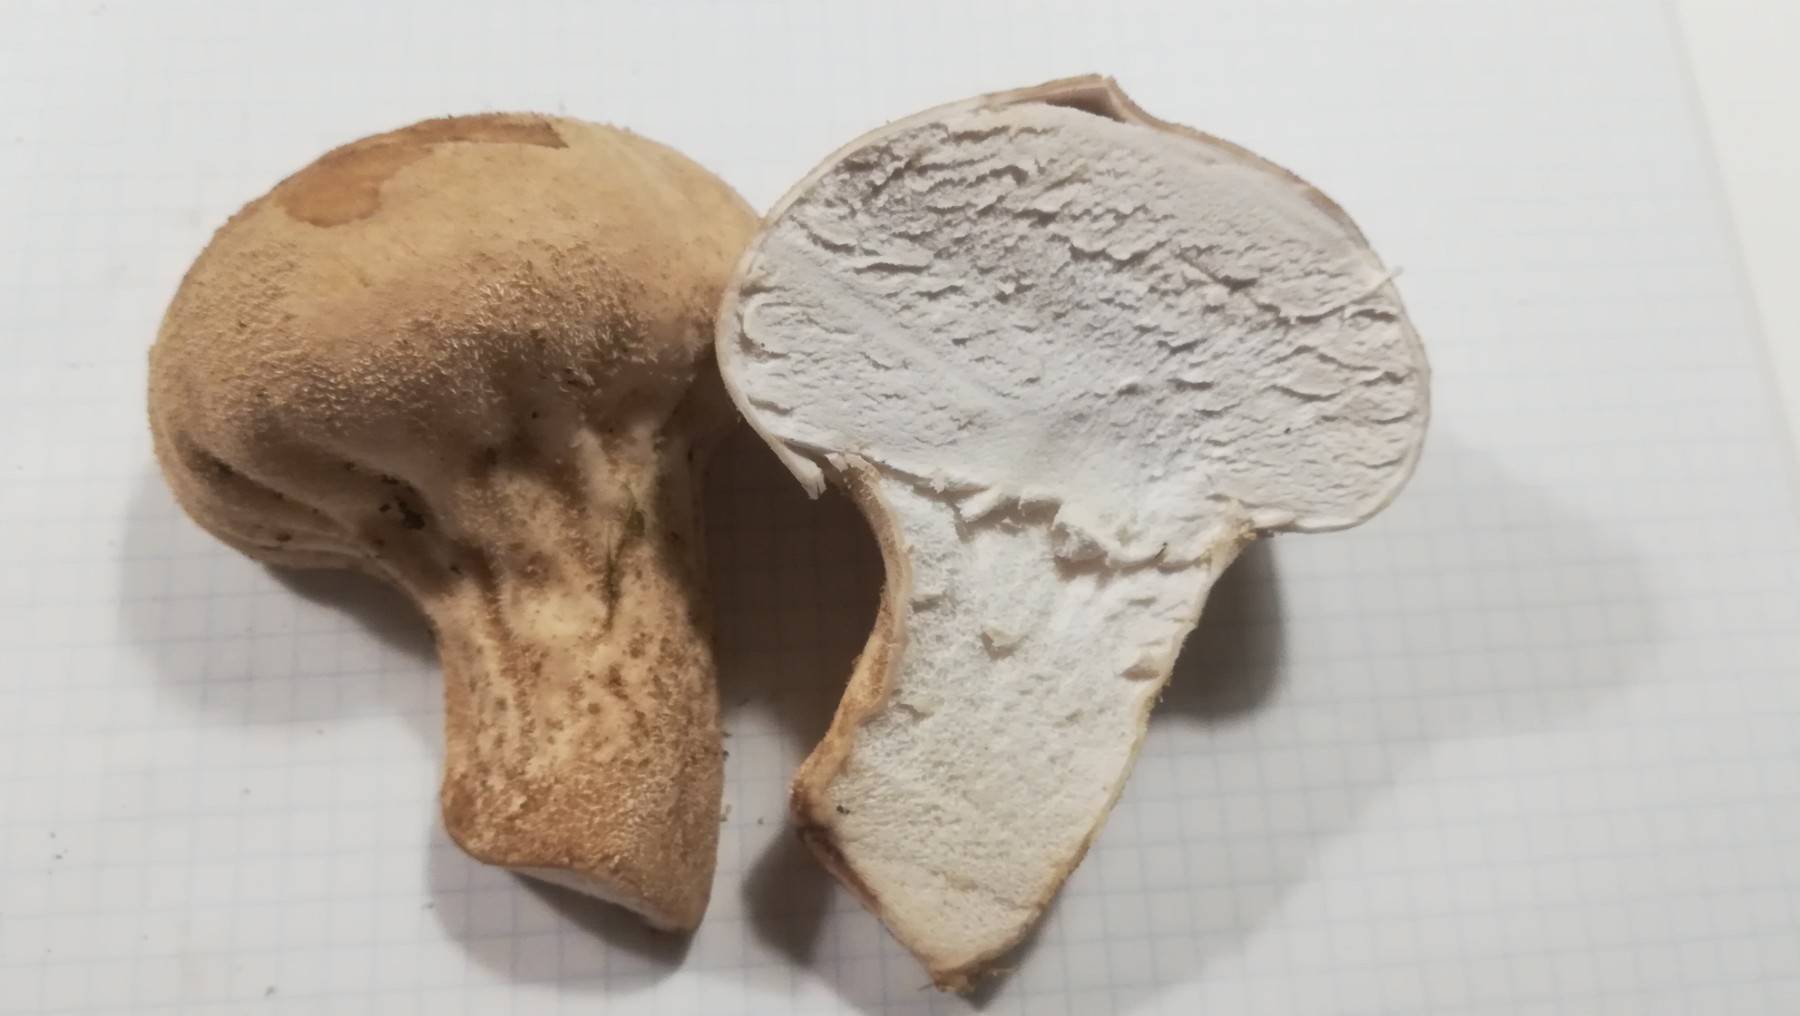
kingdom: Fungi
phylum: Basidiomycota
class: Agaricomycetes
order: Agaricales
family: Lycoperdaceae
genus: Lycoperdon
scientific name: Lycoperdon excipuliforme
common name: højstokket støvbold
